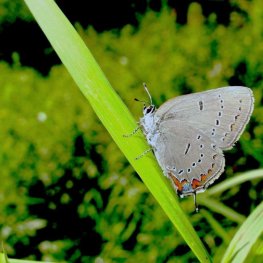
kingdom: Animalia
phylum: Arthropoda
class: Insecta
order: Lepidoptera
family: Lycaenidae
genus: Strymon
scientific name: Strymon acadica
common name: Acadian Hairstreak
